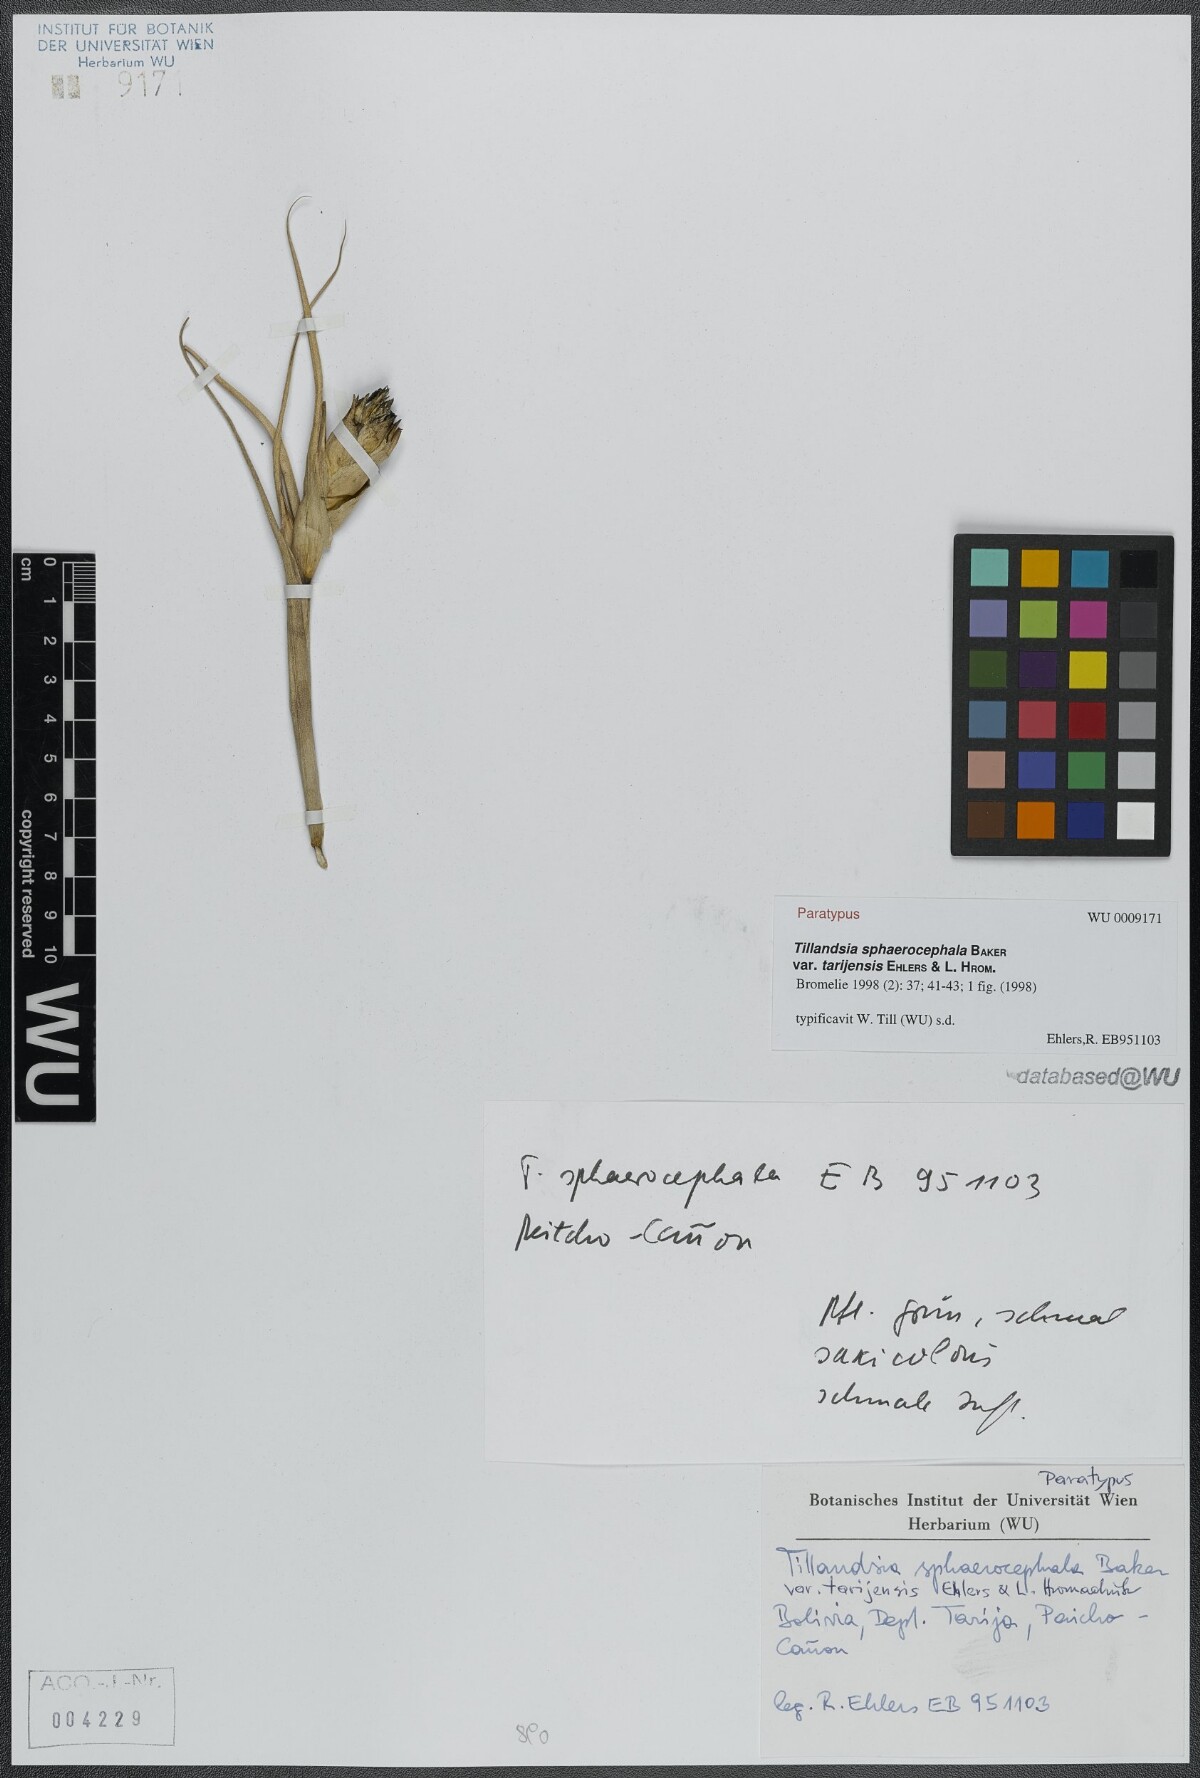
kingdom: Plantae
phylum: Tracheophyta
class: Liliopsida
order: Poales
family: Bromeliaceae
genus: Tillandsia
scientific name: Tillandsia sphaerocephala
